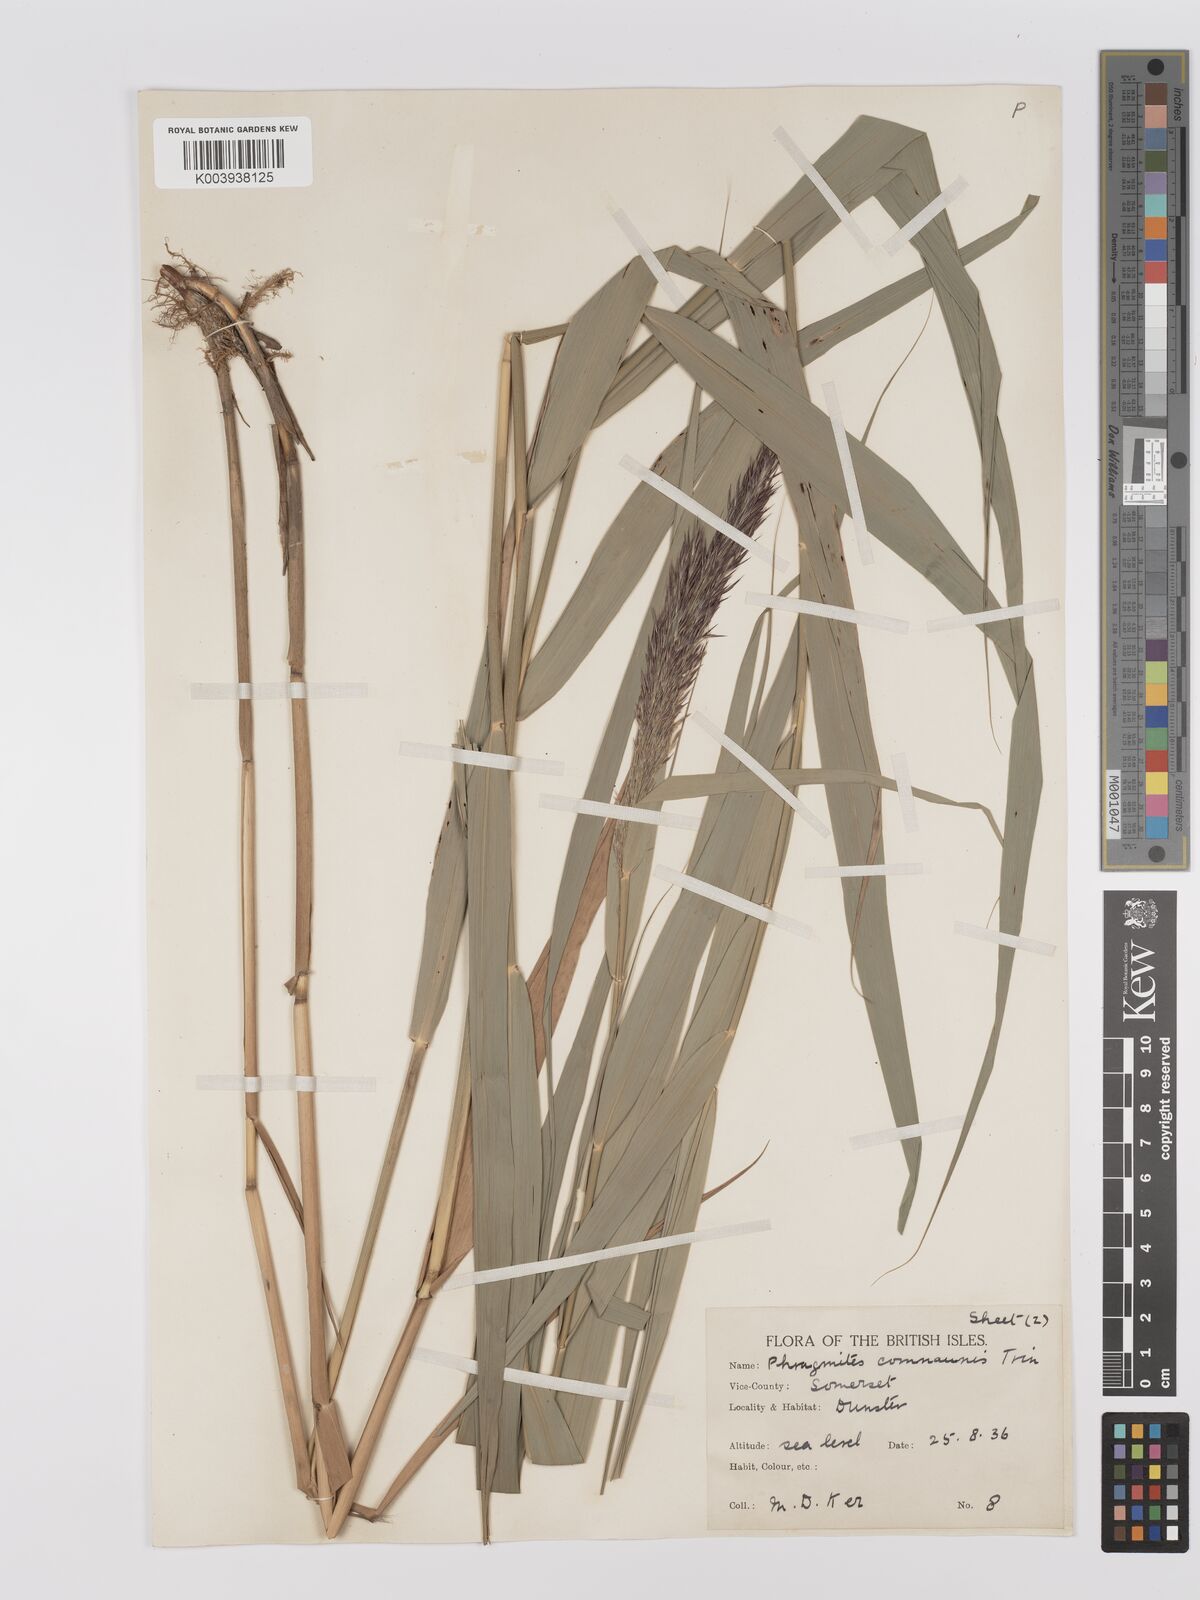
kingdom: Plantae
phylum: Tracheophyta
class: Liliopsida
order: Poales
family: Poaceae
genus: Phragmites
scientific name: Phragmites australis
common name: Common reed
